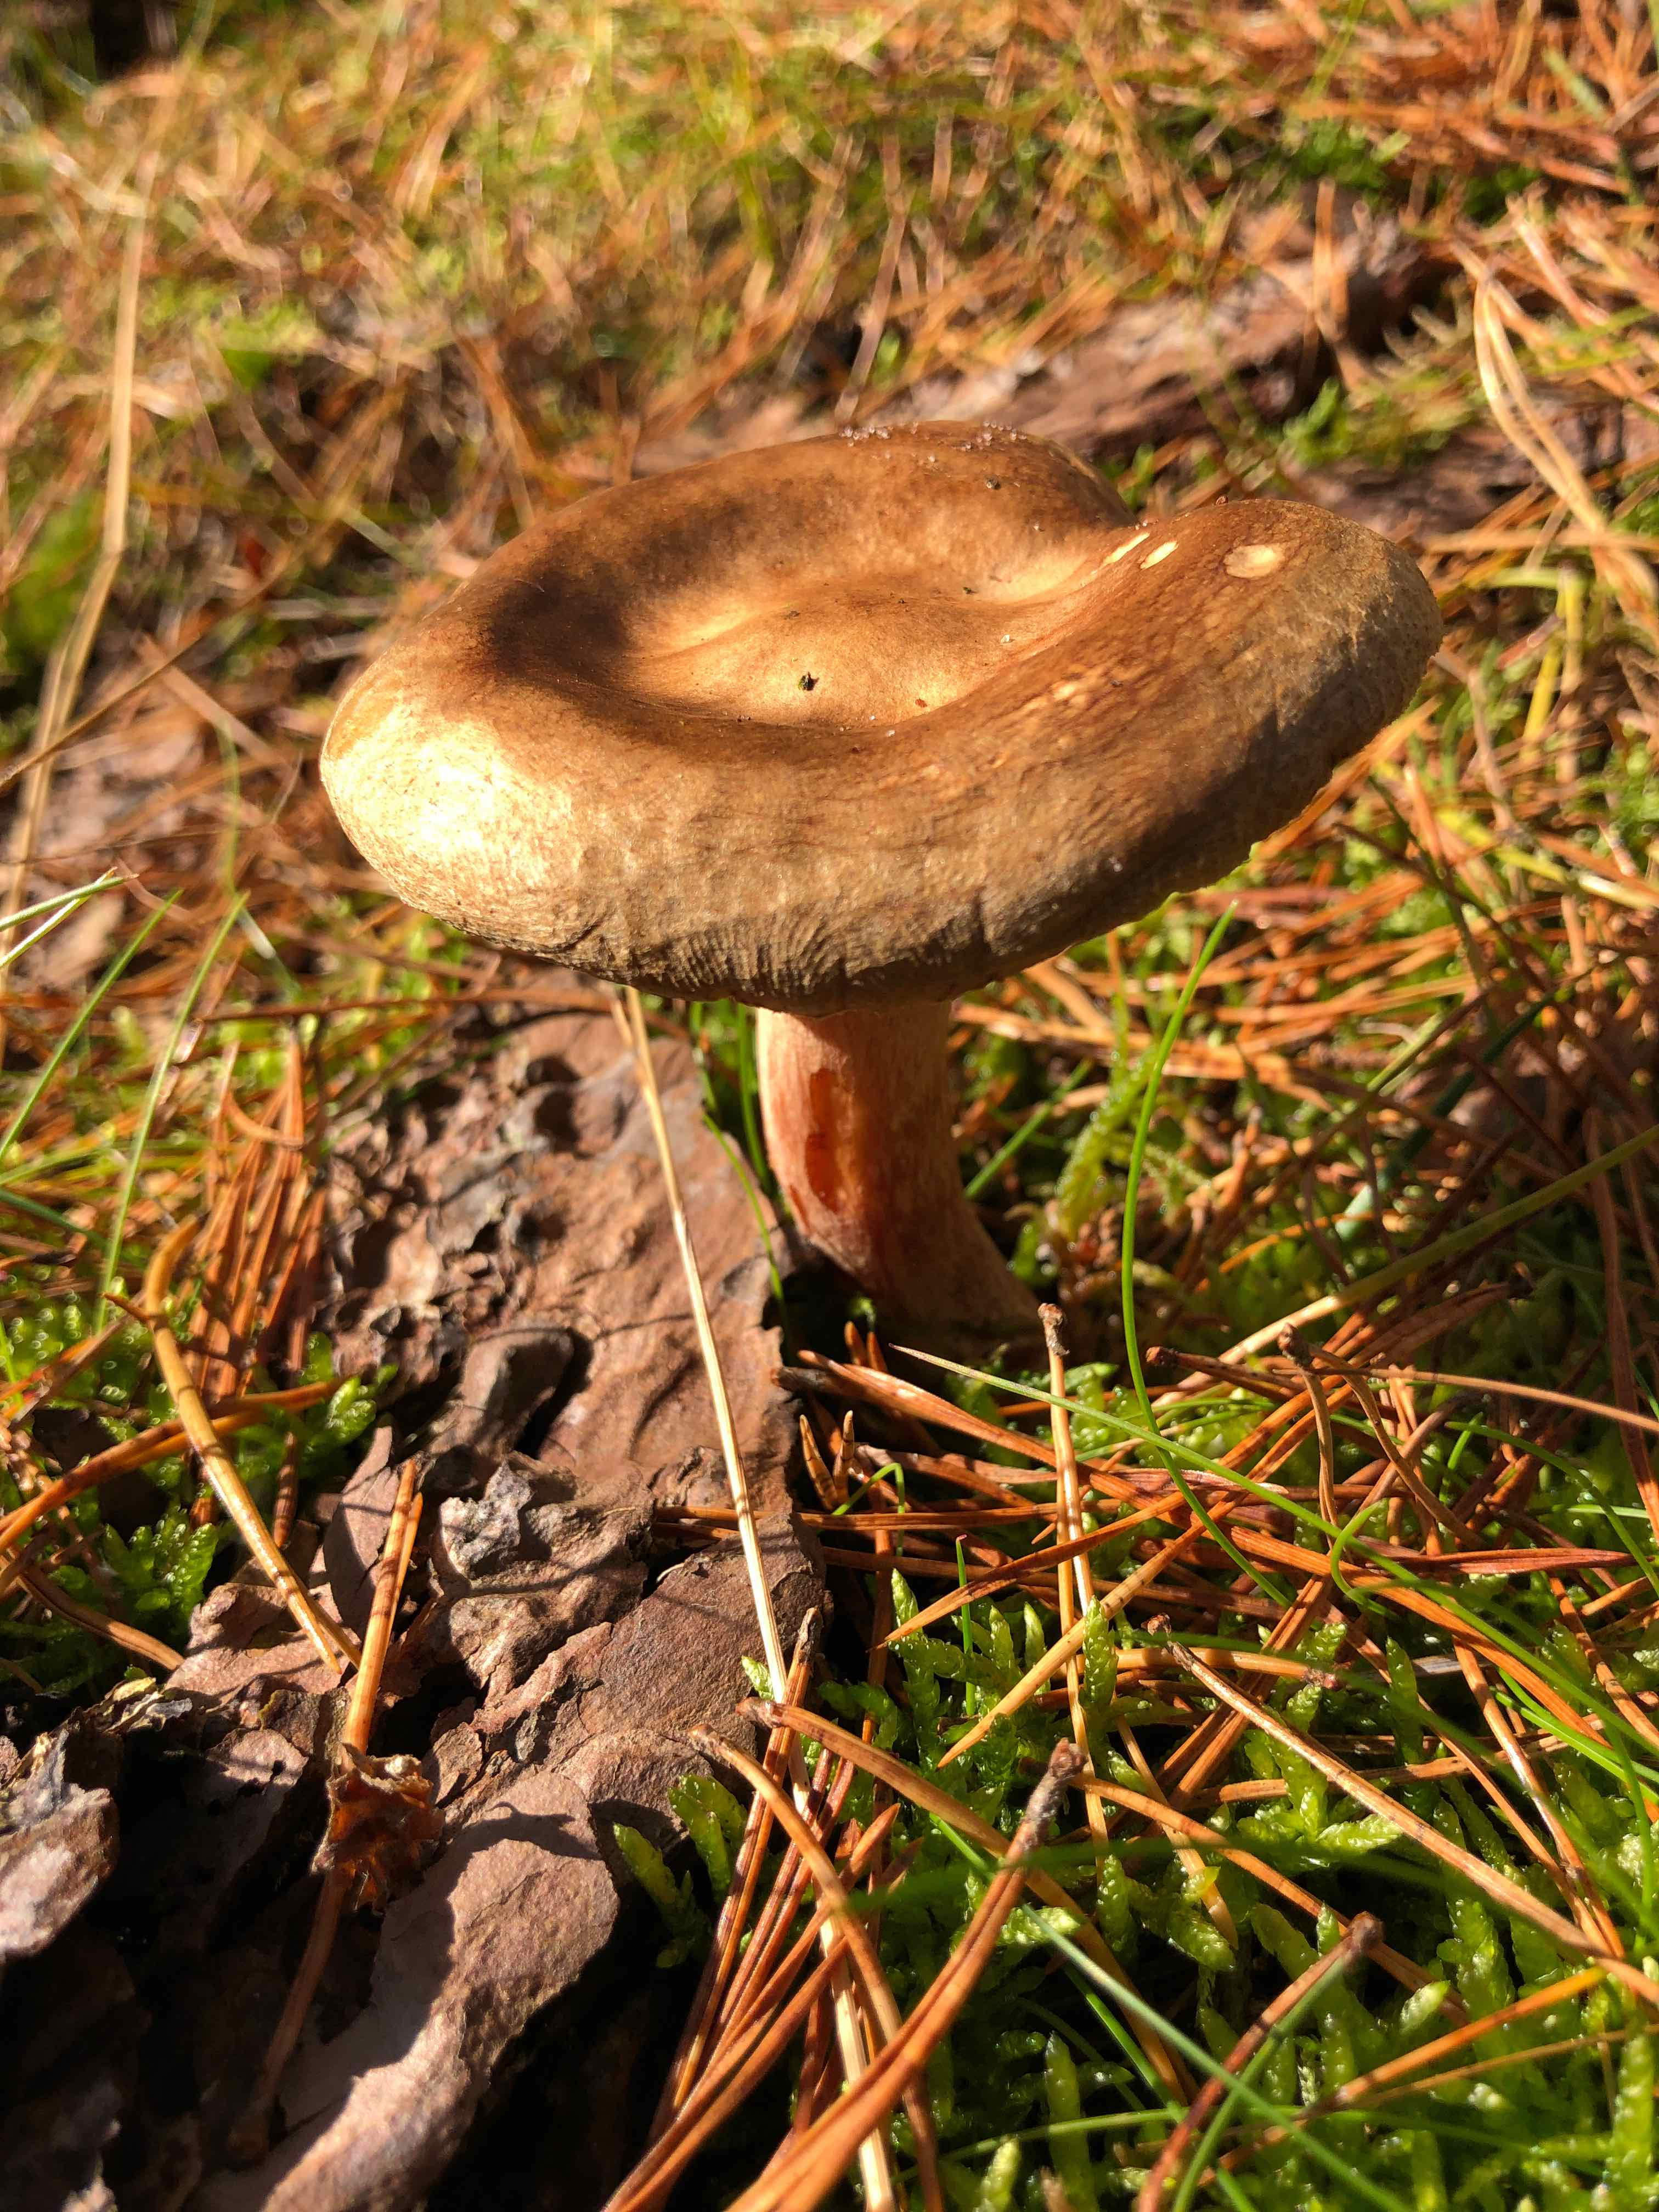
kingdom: Fungi
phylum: Basidiomycota
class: Agaricomycetes
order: Boletales
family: Paxillaceae
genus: Paxillus
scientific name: Paxillus involutus
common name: almindelig netbladhat
